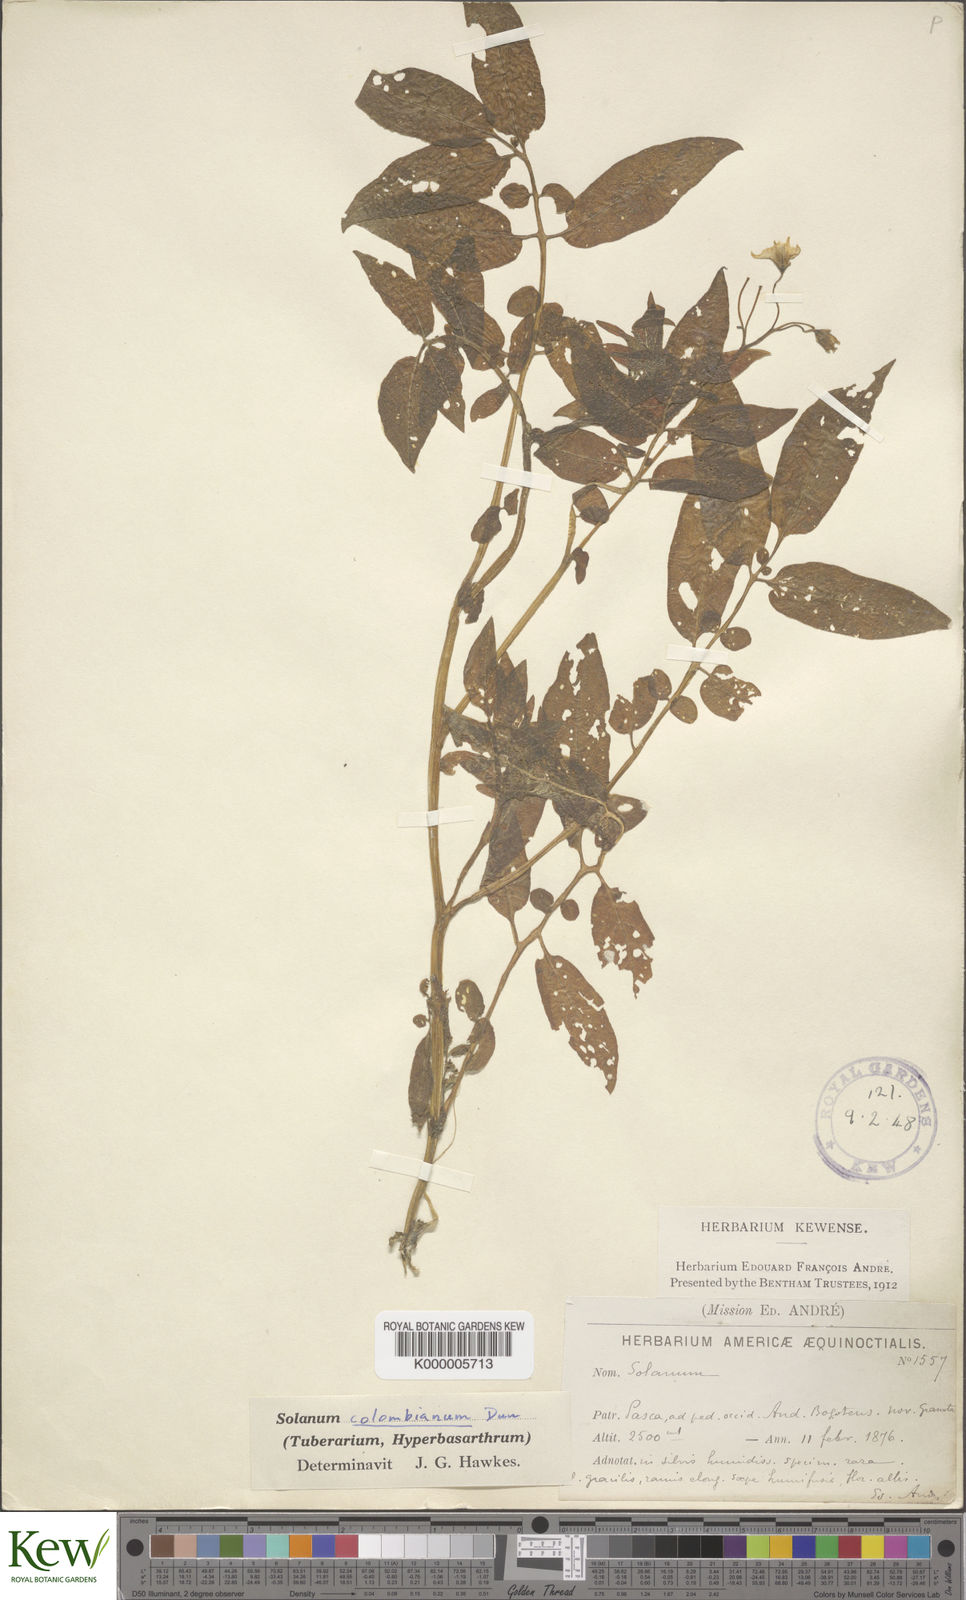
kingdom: Plantae
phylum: Tracheophyta
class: Magnoliopsida
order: Solanales
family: Solanaceae
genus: Solanum
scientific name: Solanum colombianum
